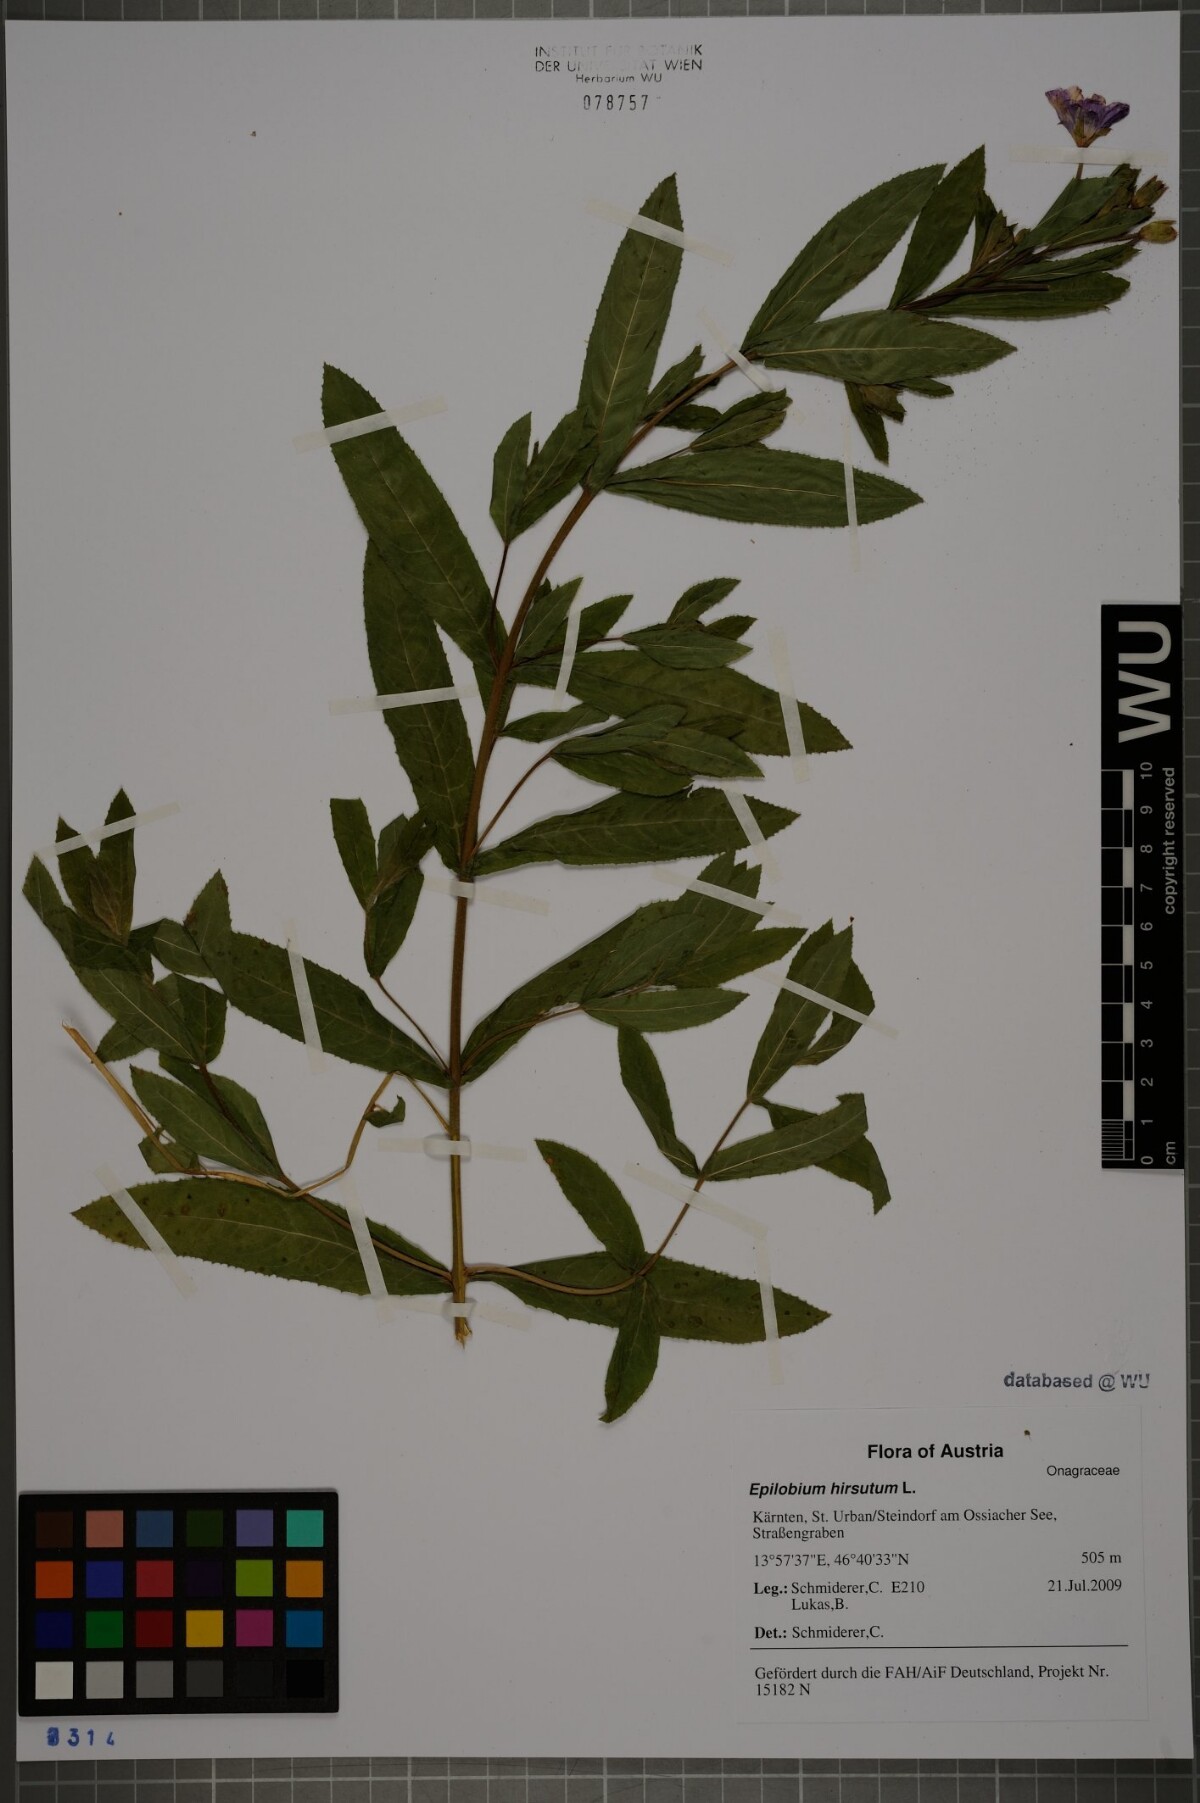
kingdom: Plantae
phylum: Tracheophyta
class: Magnoliopsida
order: Myrtales
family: Onagraceae
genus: Epilobium
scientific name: Epilobium hirsutum
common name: Great willowherb
